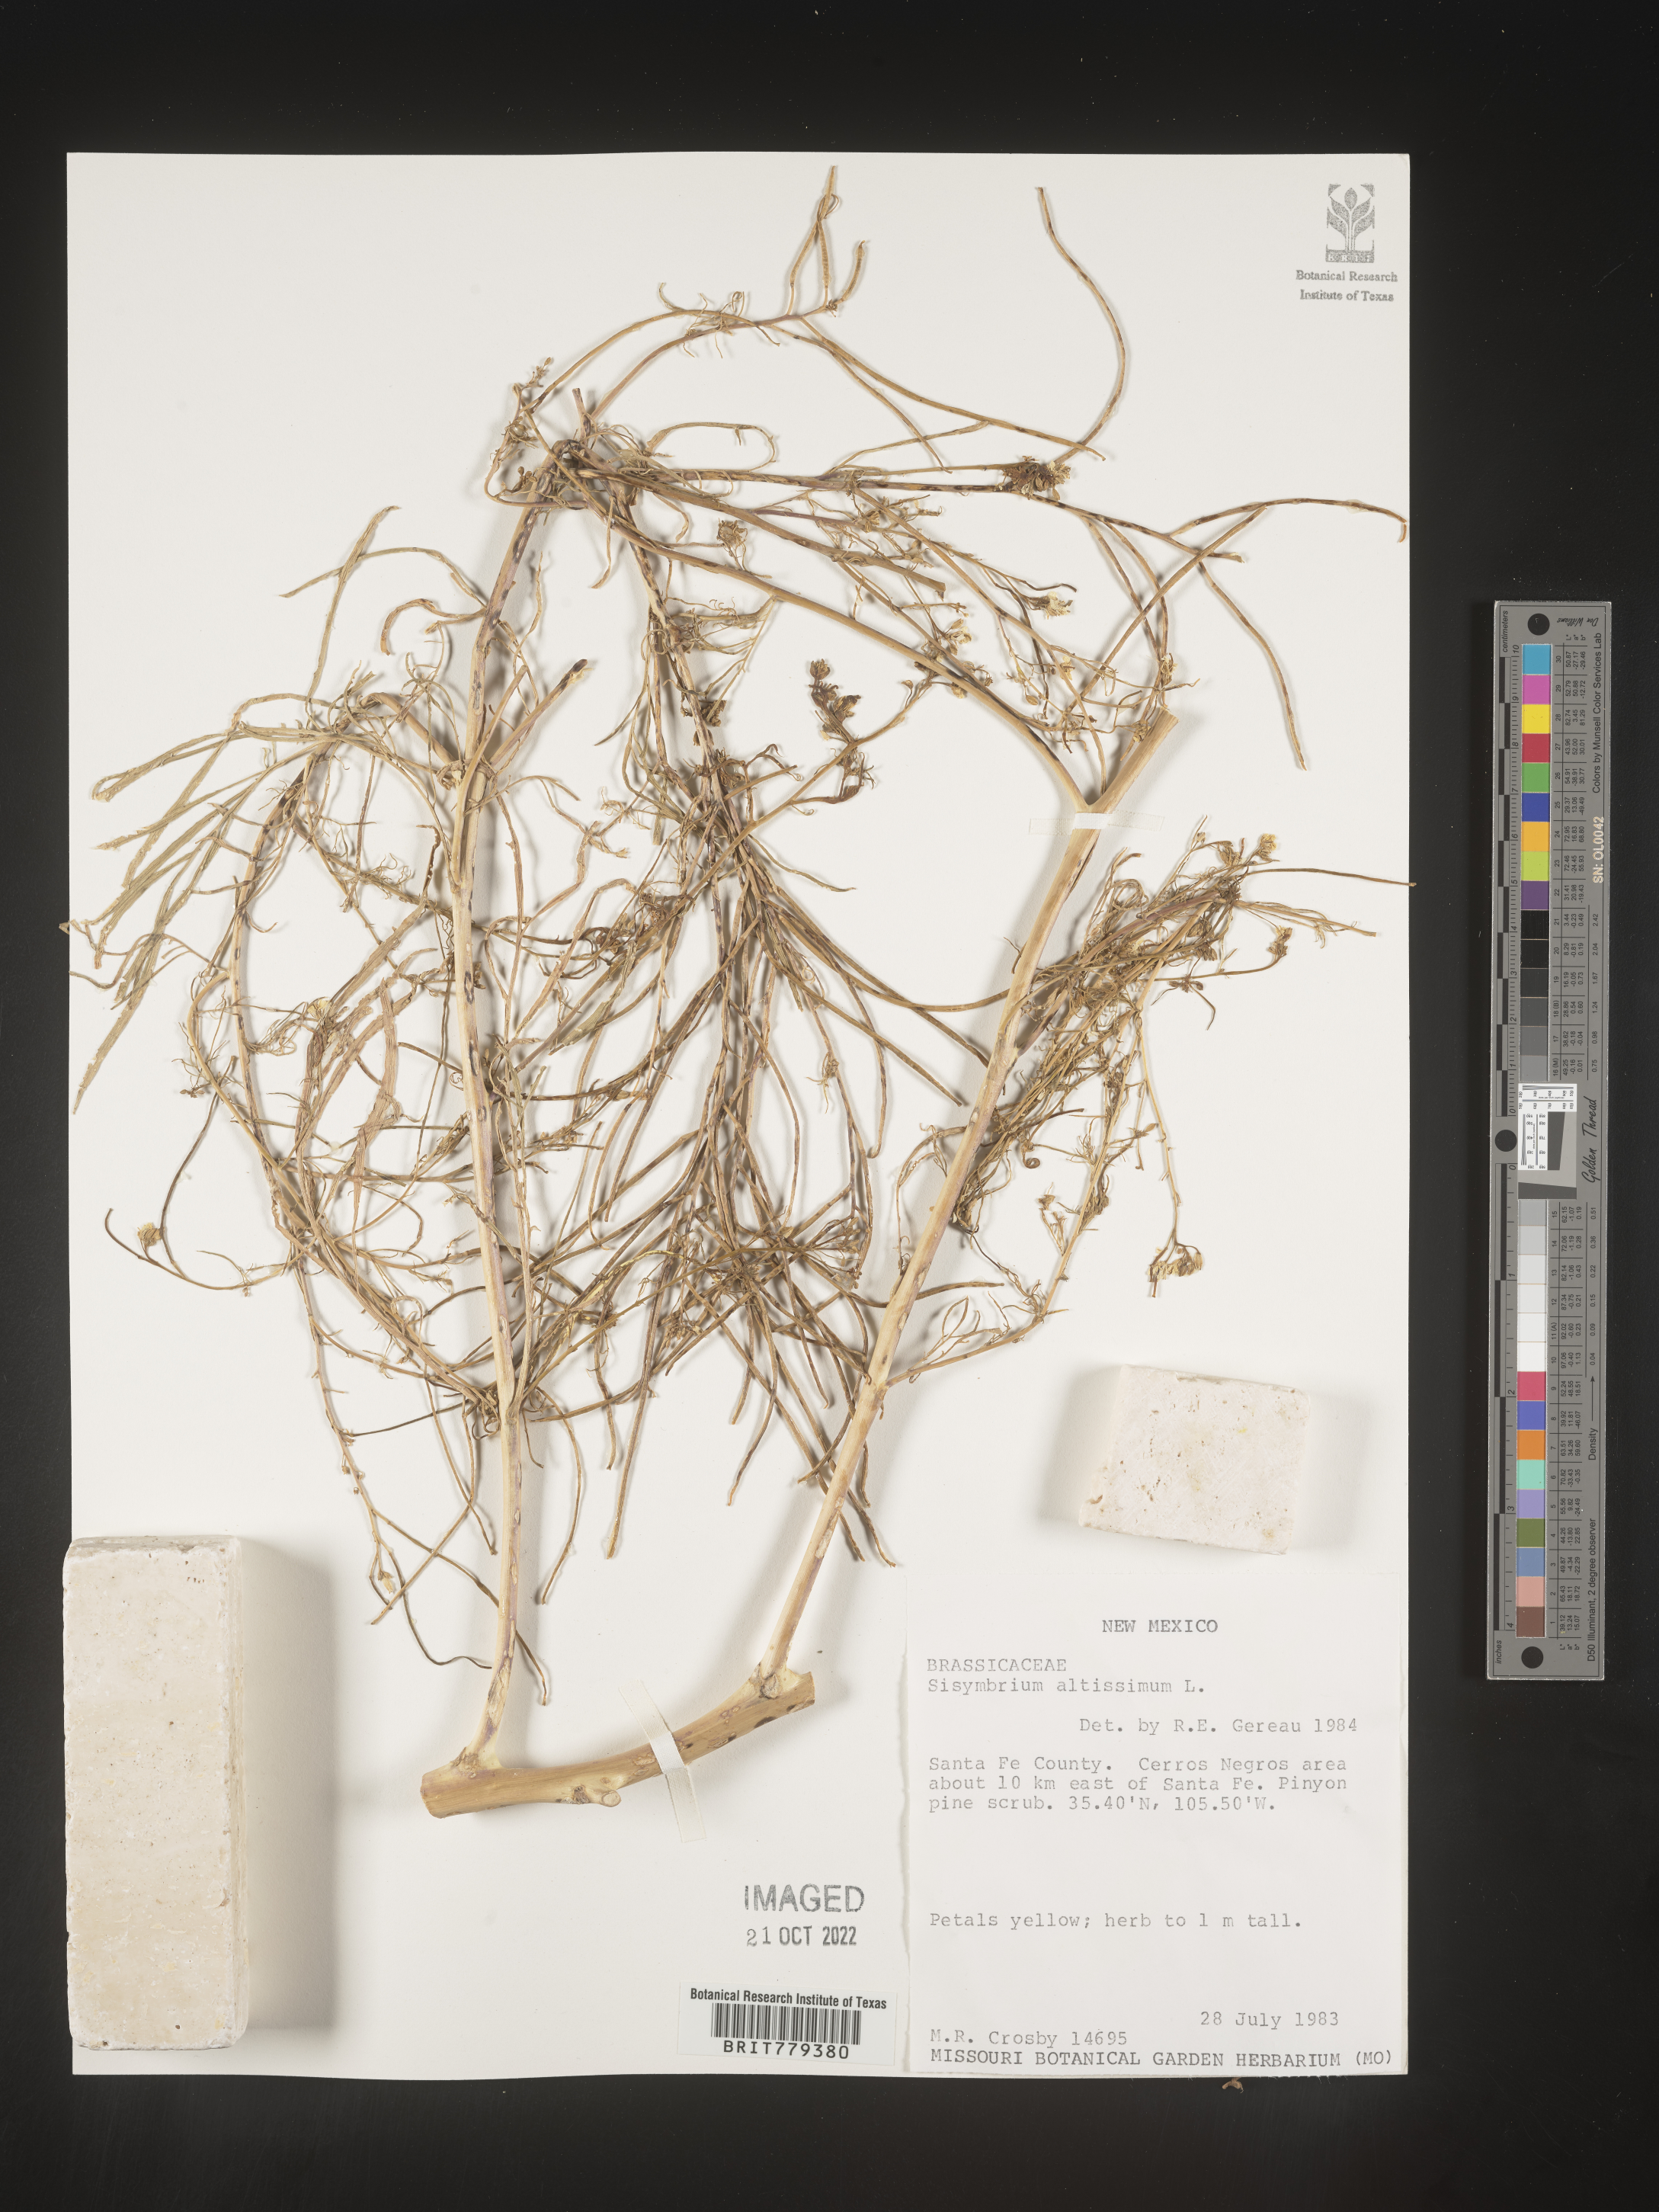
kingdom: Plantae
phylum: Tracheophyta
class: Magnoliopsida
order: Brassicales
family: Brassicaceae
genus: Sisymbrium
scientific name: Sisymbrium altissimum
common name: Tall rocket
